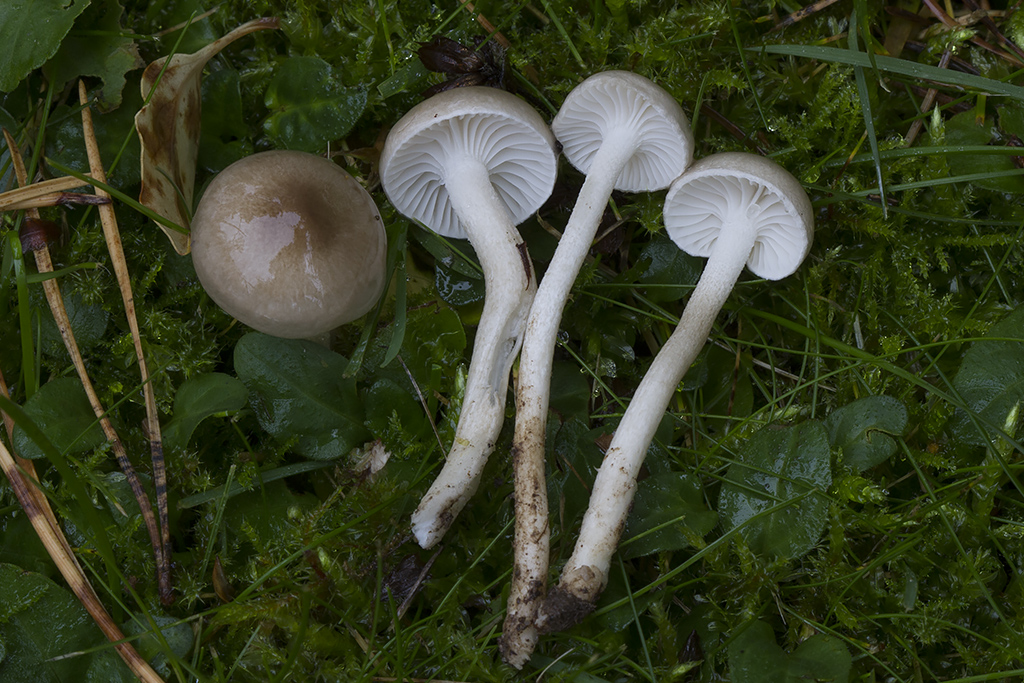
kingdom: Fungi
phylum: Basidiomycota
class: Agaricomycetes
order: Agaricales
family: Hygrophoraceae
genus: Hygrophorus
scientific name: Hygrophorus suaveolens
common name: parfumeret sneglehat
